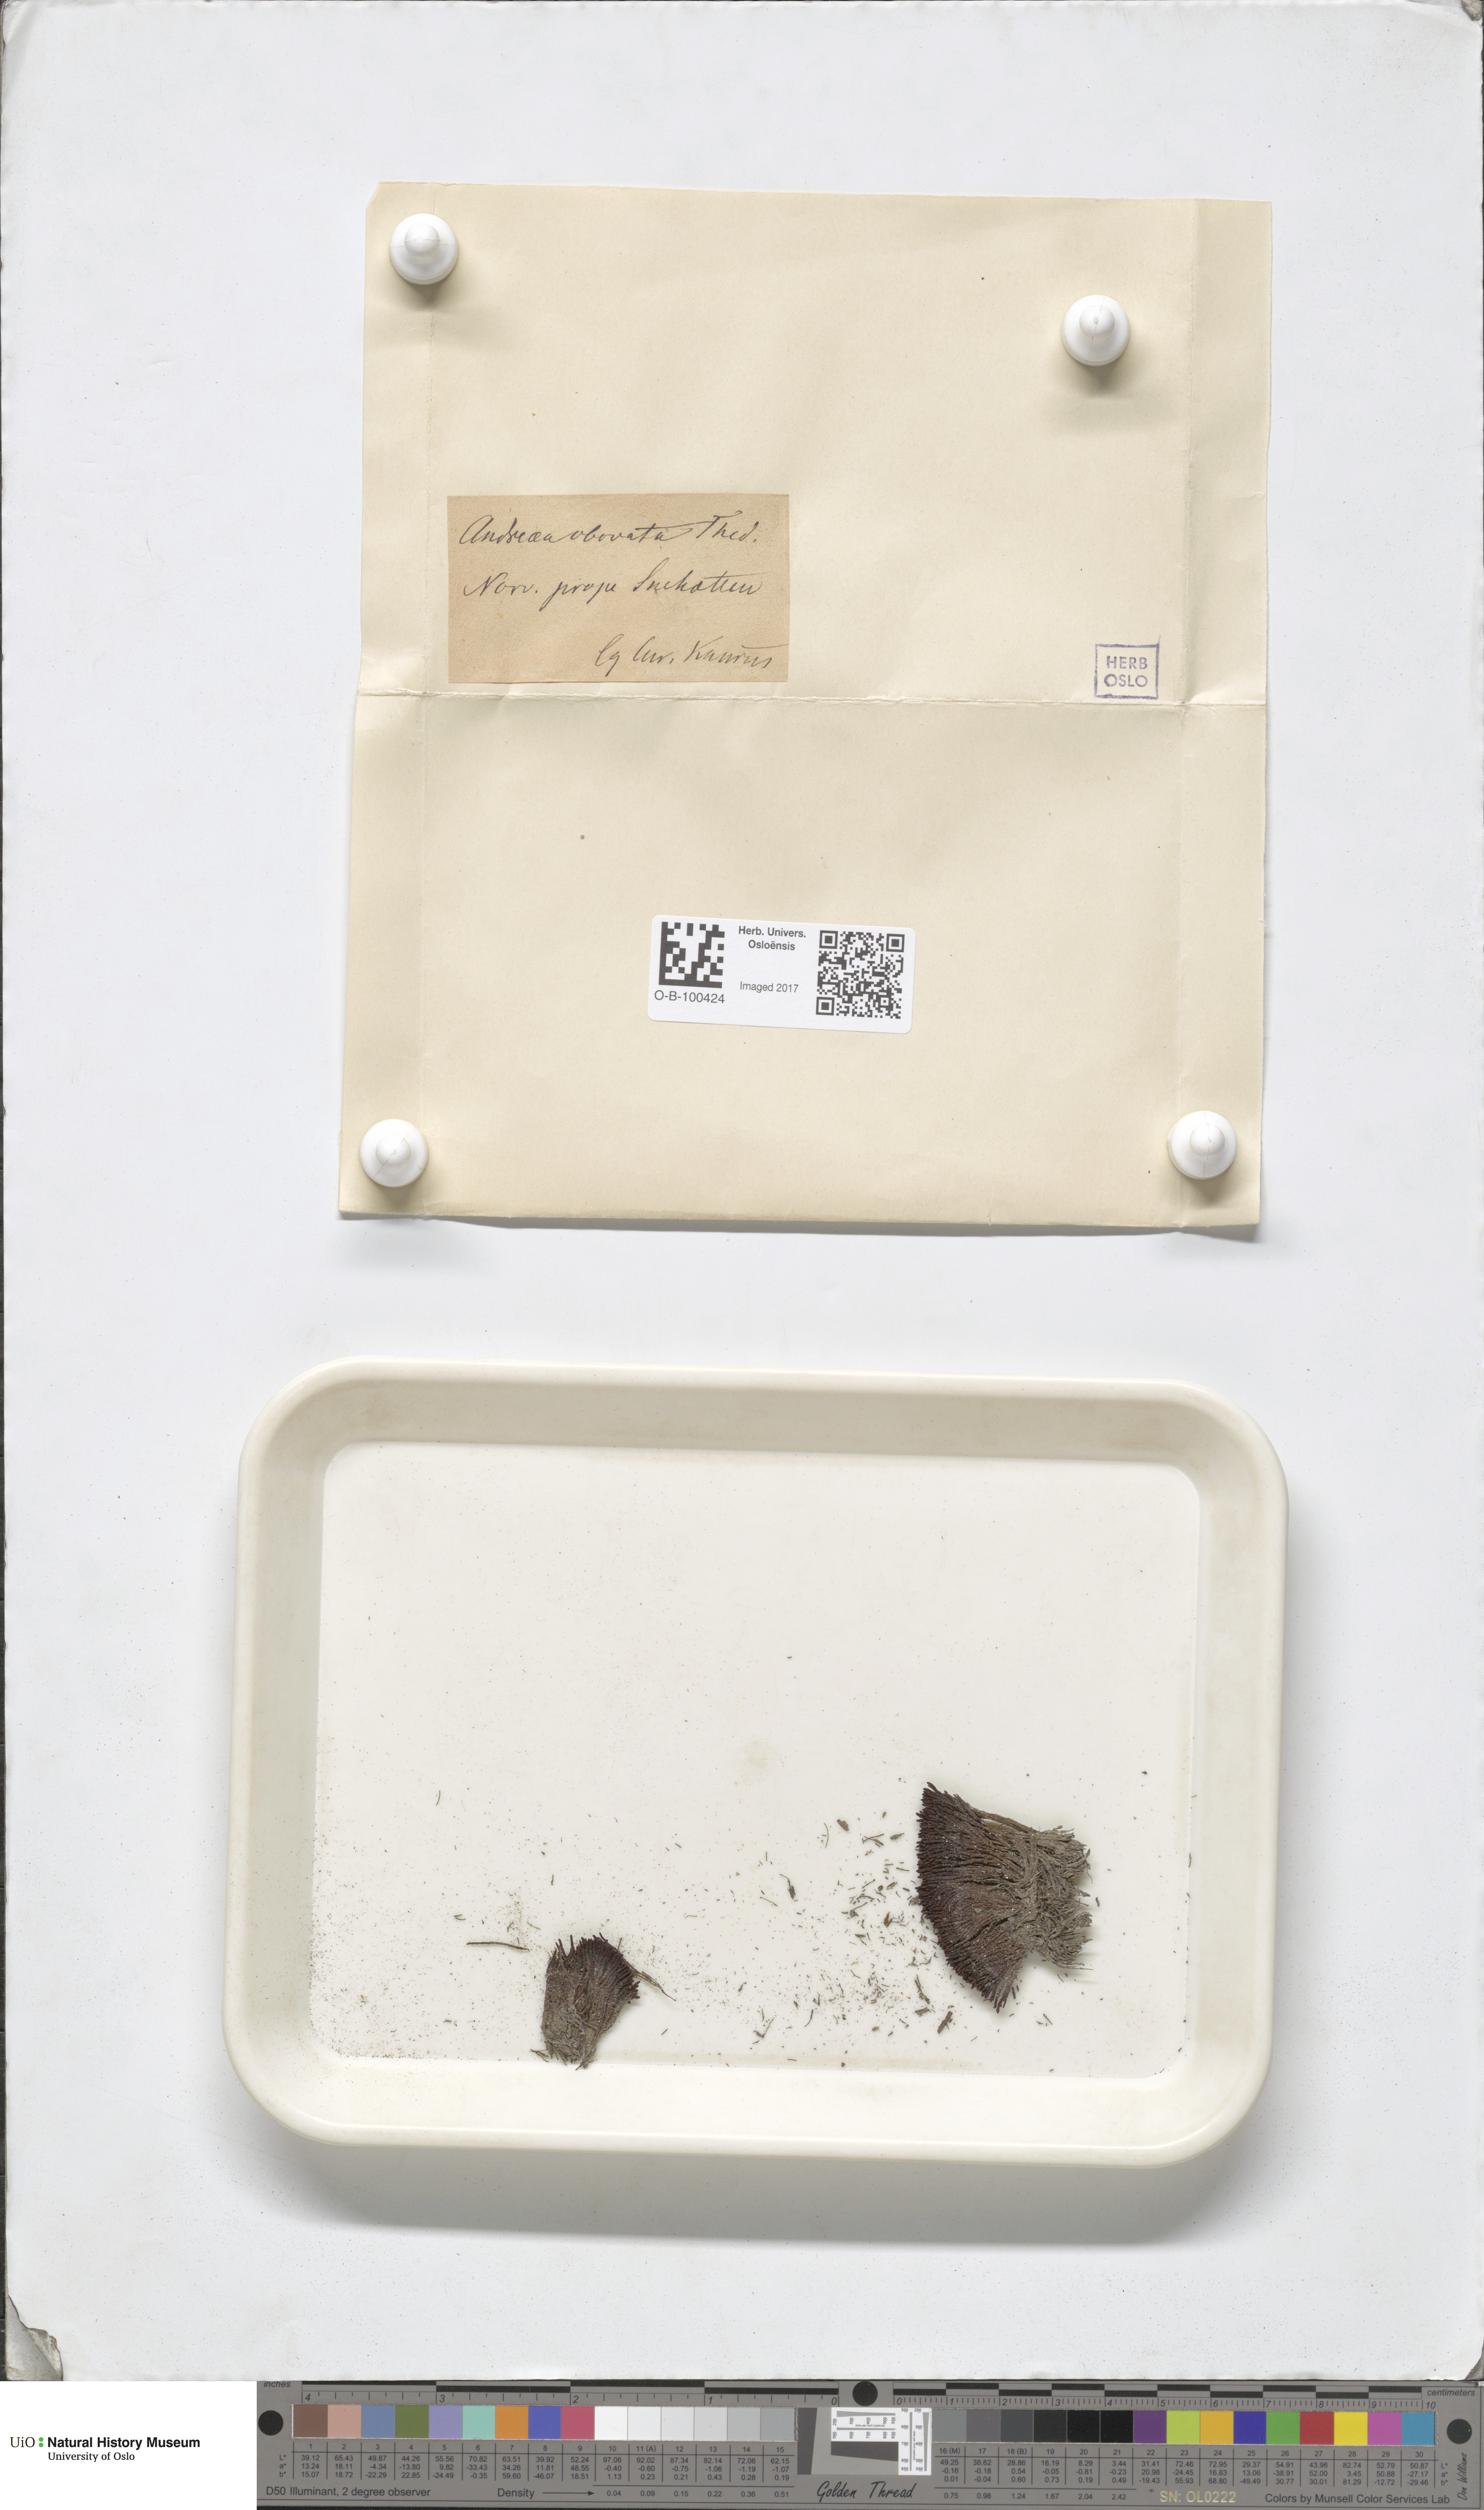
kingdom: Plantae
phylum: Bryophyta
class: Andreaeopsida
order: Andreaeales
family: Andreaeaceae
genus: Andreaea
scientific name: Andreaea alpina
